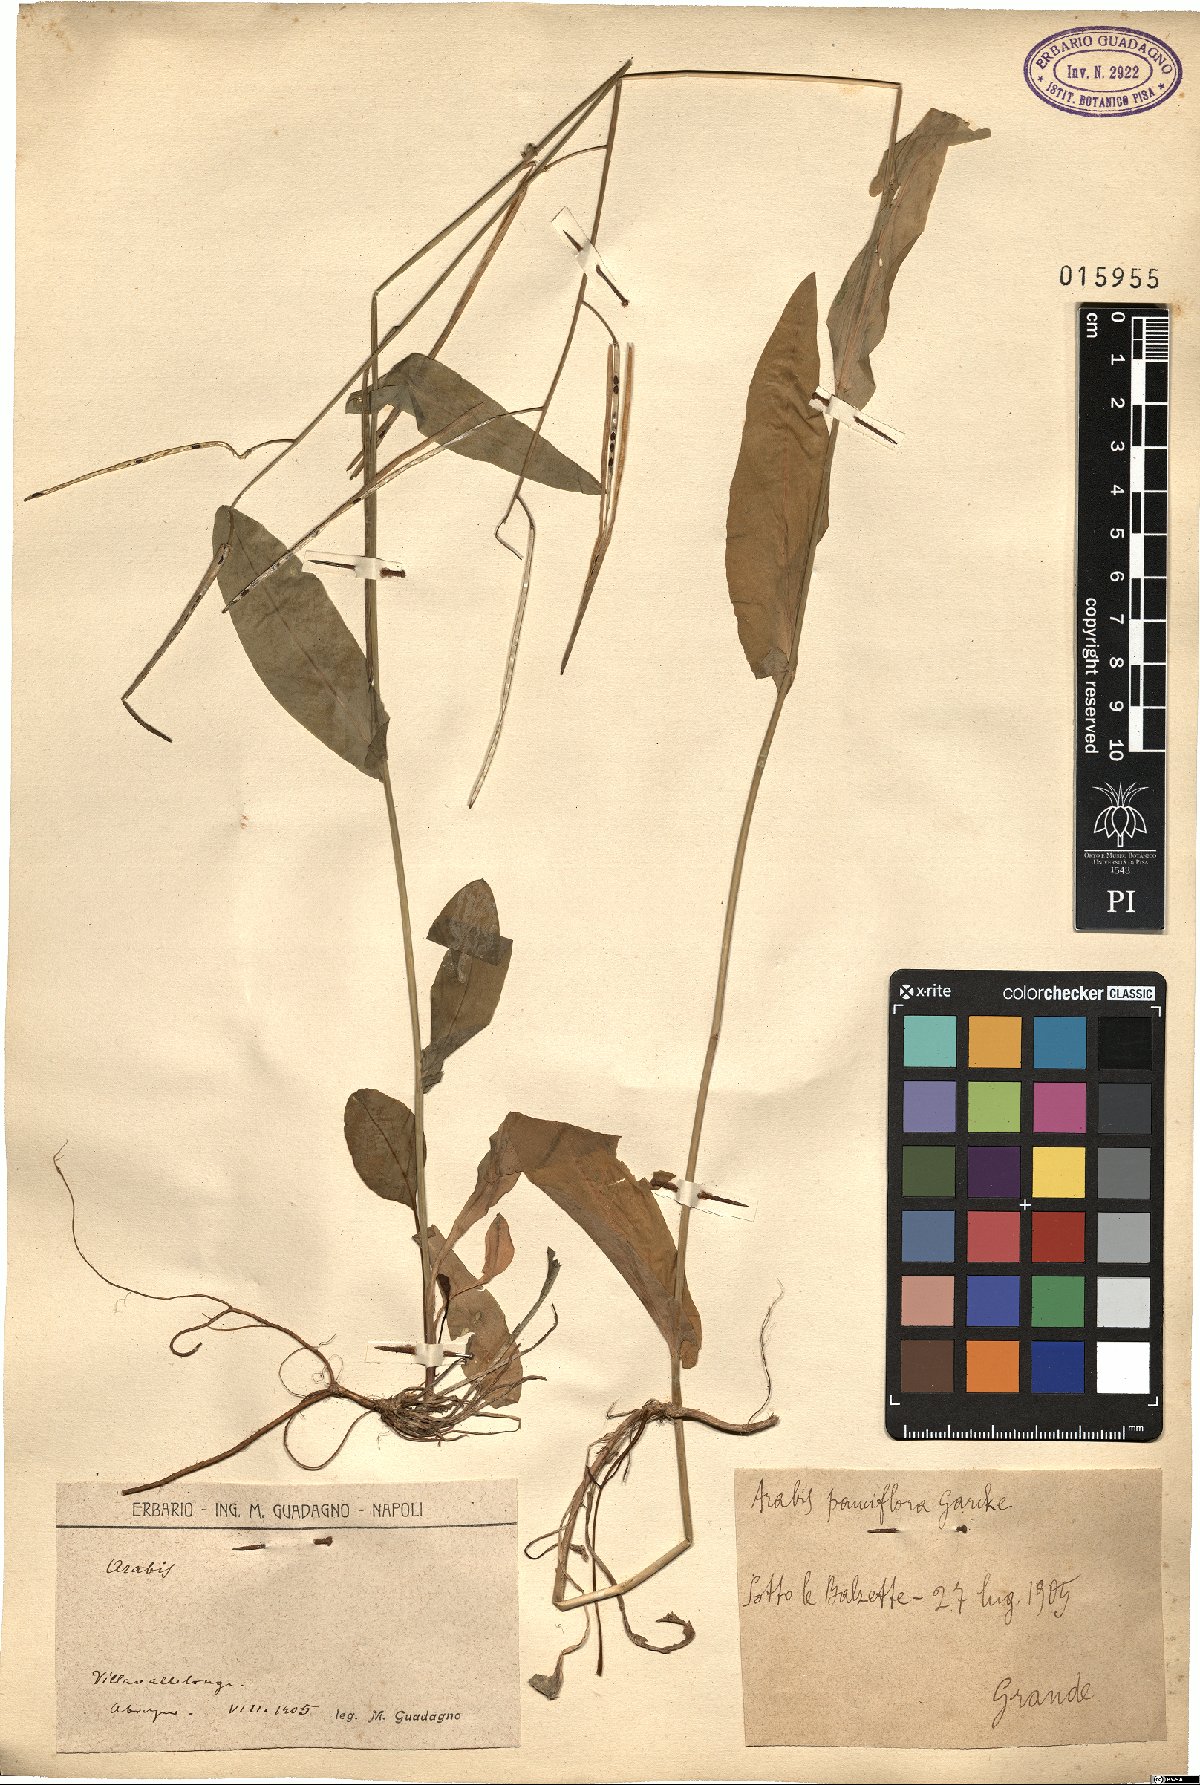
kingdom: Plantae
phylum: Tracheophyta
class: Magnoliopsida
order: Brassicales
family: Brassicaceae
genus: Fourraea
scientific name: Fourraea alpina
